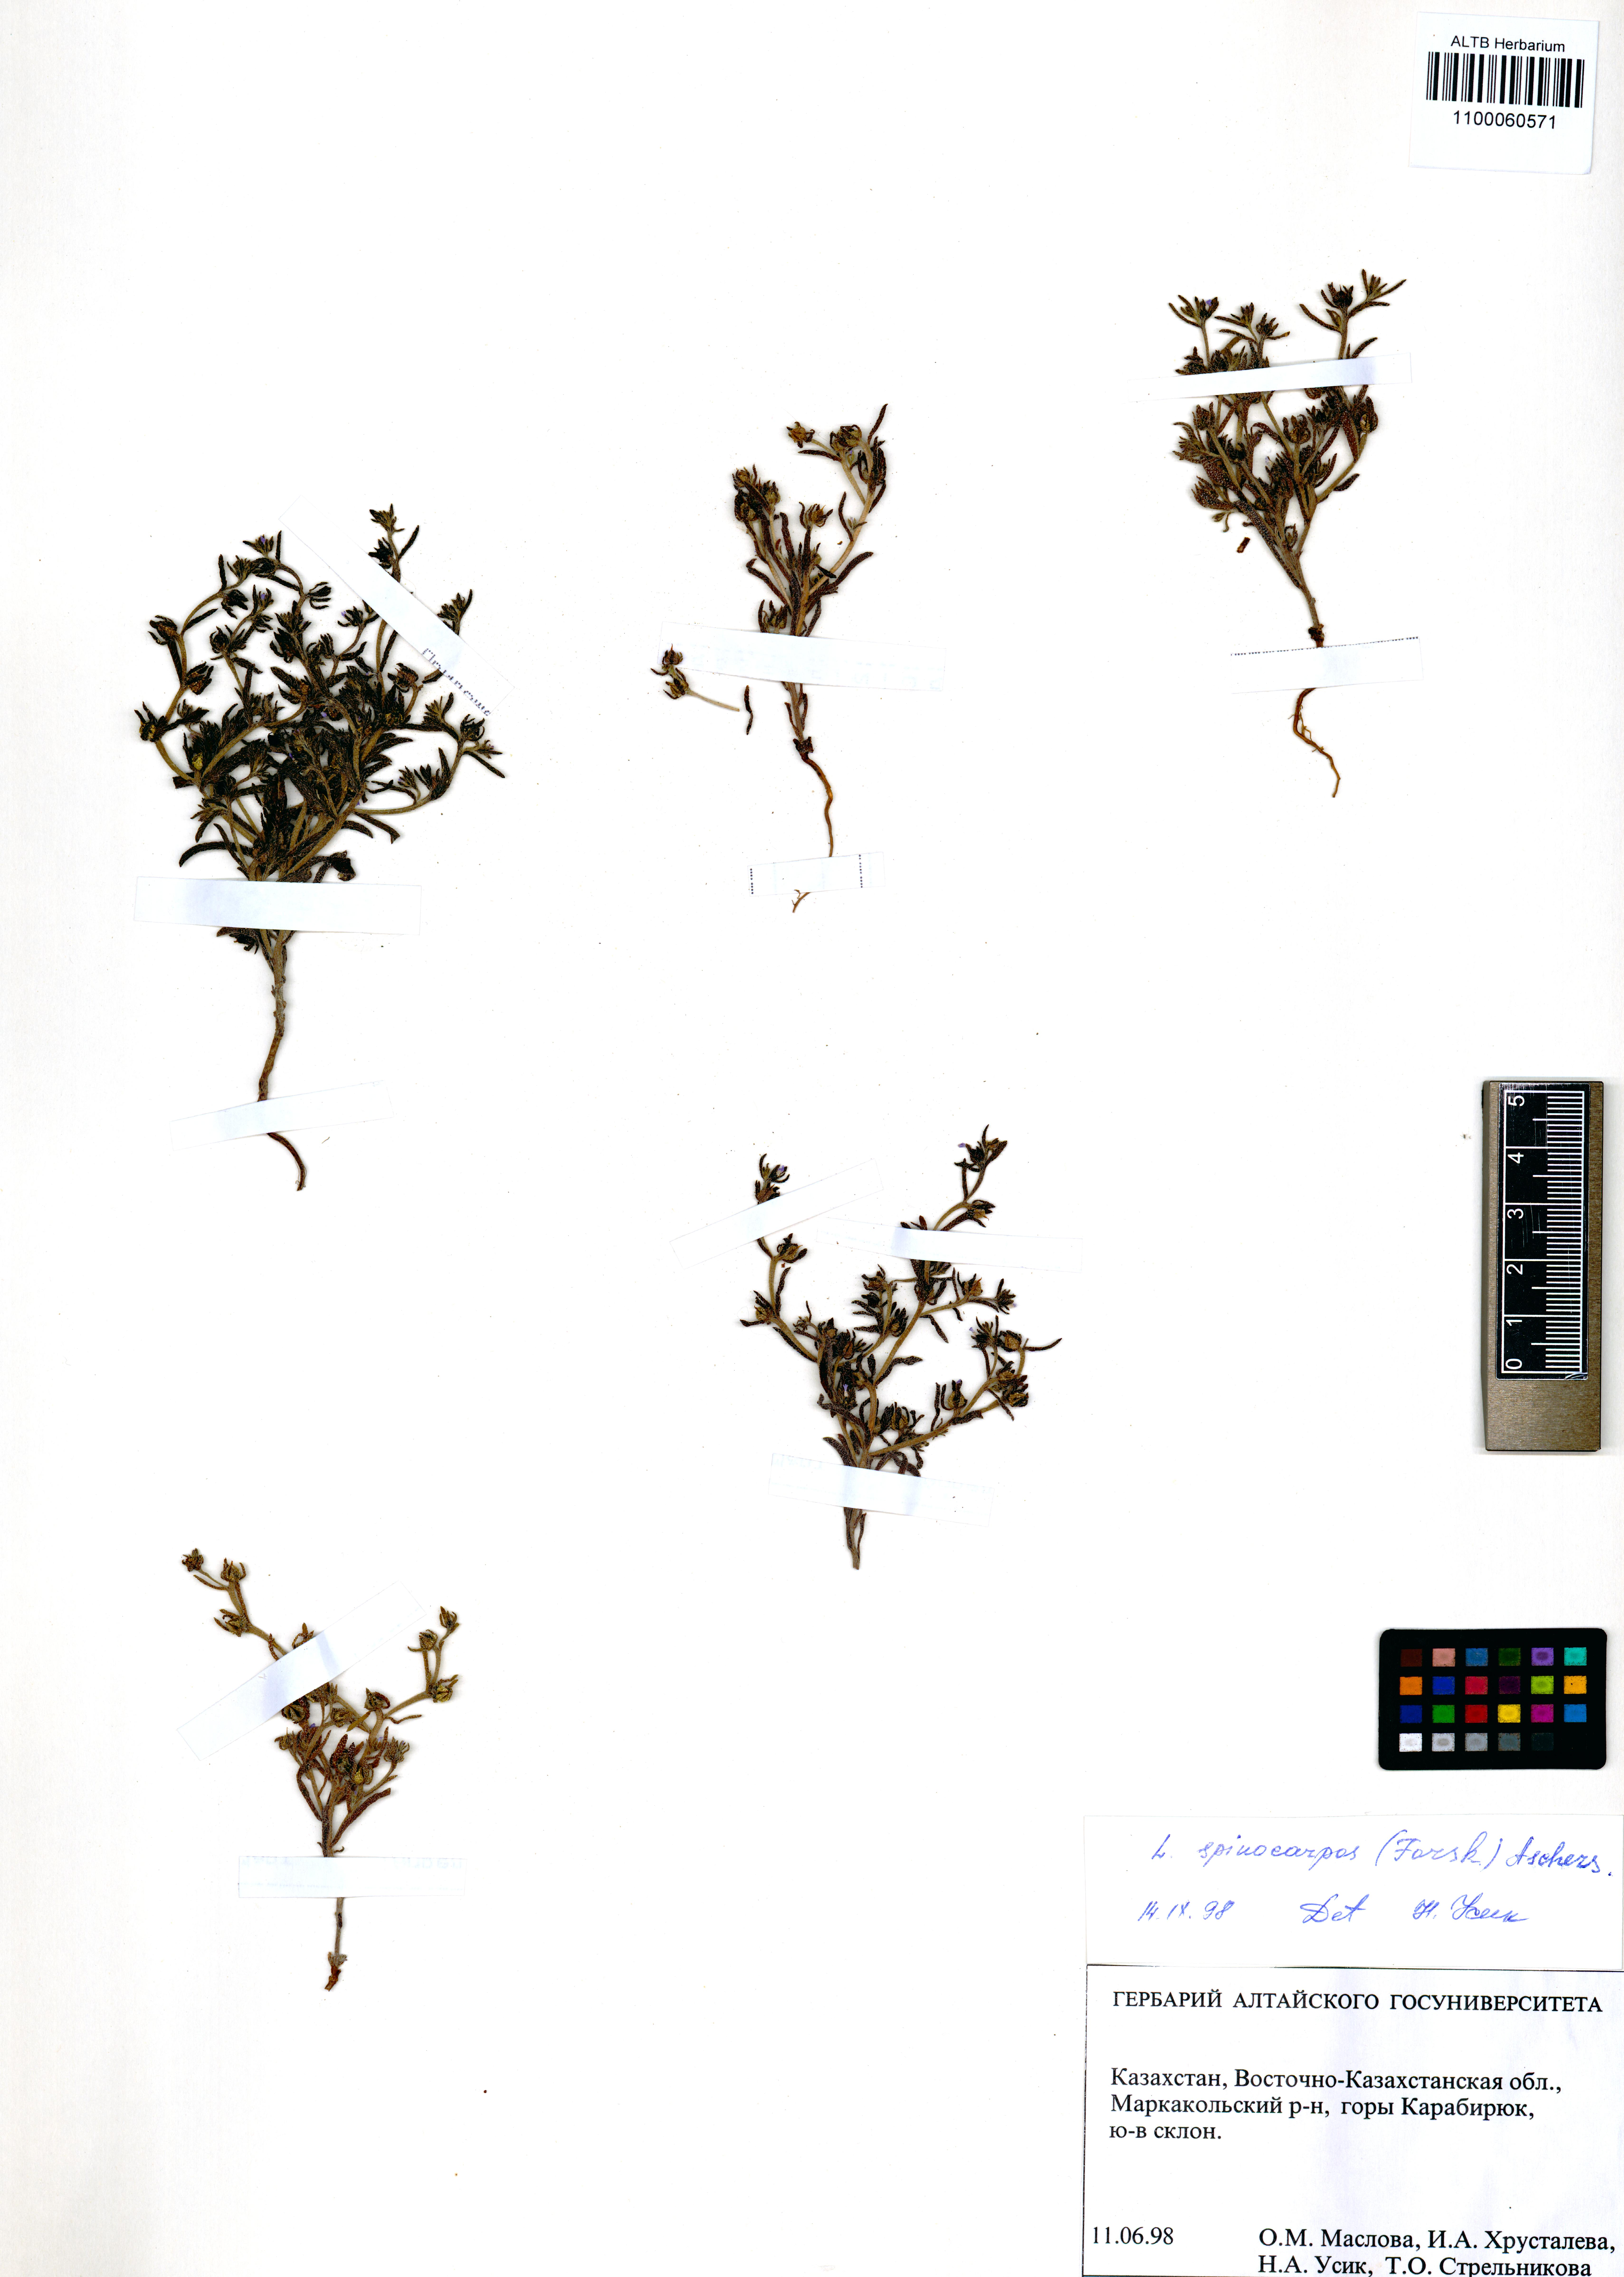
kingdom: Plantae
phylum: Tracheophyta
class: Magnoliopsida
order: Boraginales
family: Boraginaceae
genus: Lappula
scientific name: Lappula spinocarpos
